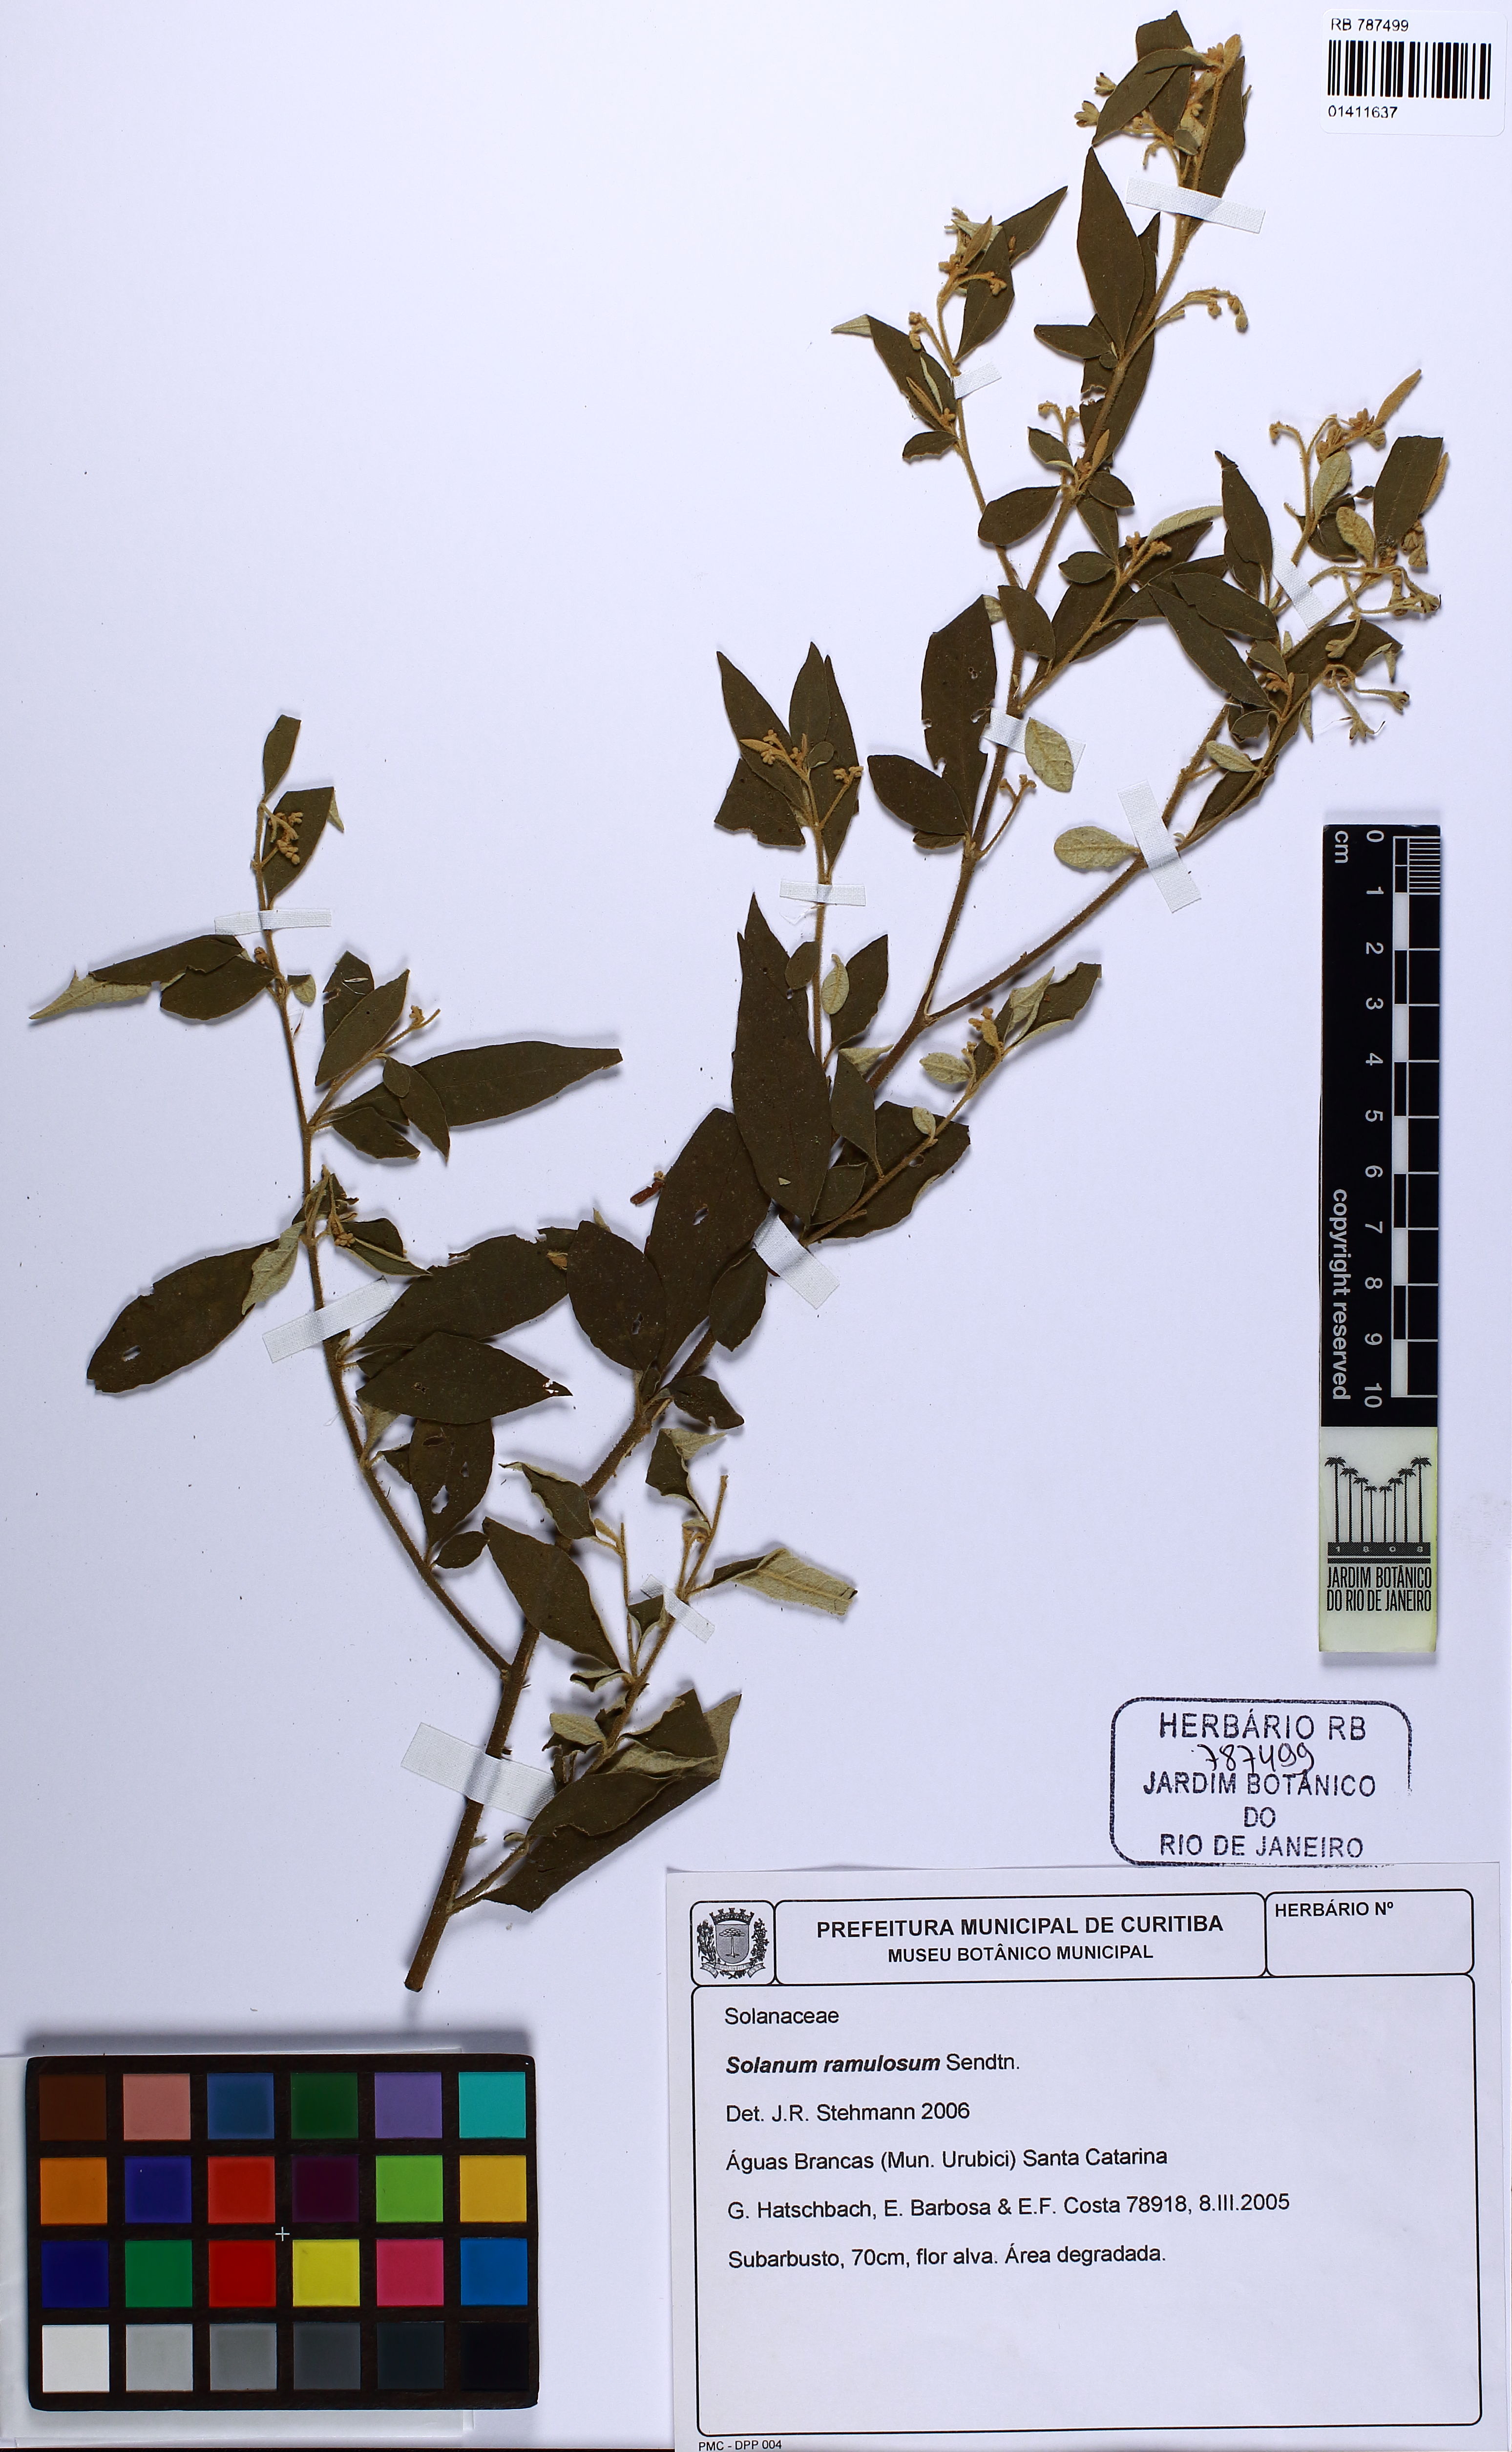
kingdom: Plantae
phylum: Tracheophyta
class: Magnoliopsida
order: Solanales
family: Solanaceae
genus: Solanum
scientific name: Solanum ramulosum
